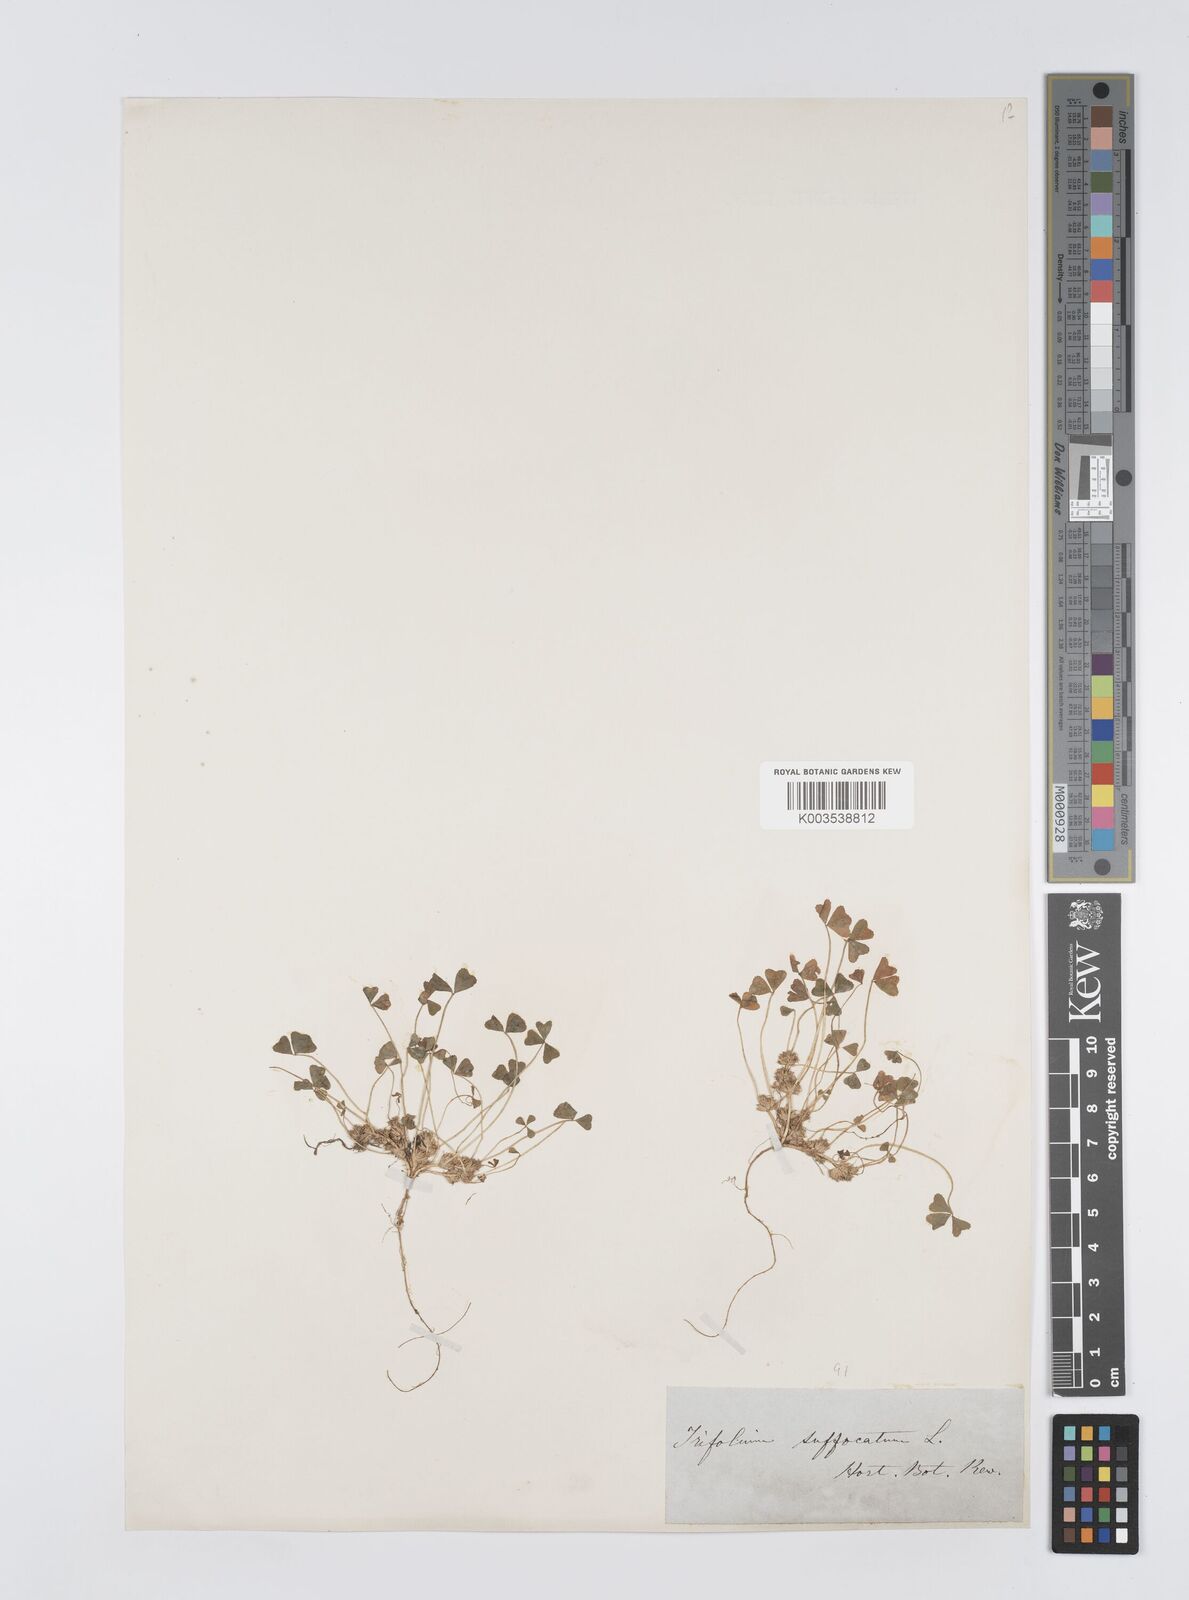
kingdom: Plantae
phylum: Tracheophyta
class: Magnoliopsida
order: Fabales
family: Fabaceae
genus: Trifolium
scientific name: Trifolium suffocatum
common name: Suffocated clover
